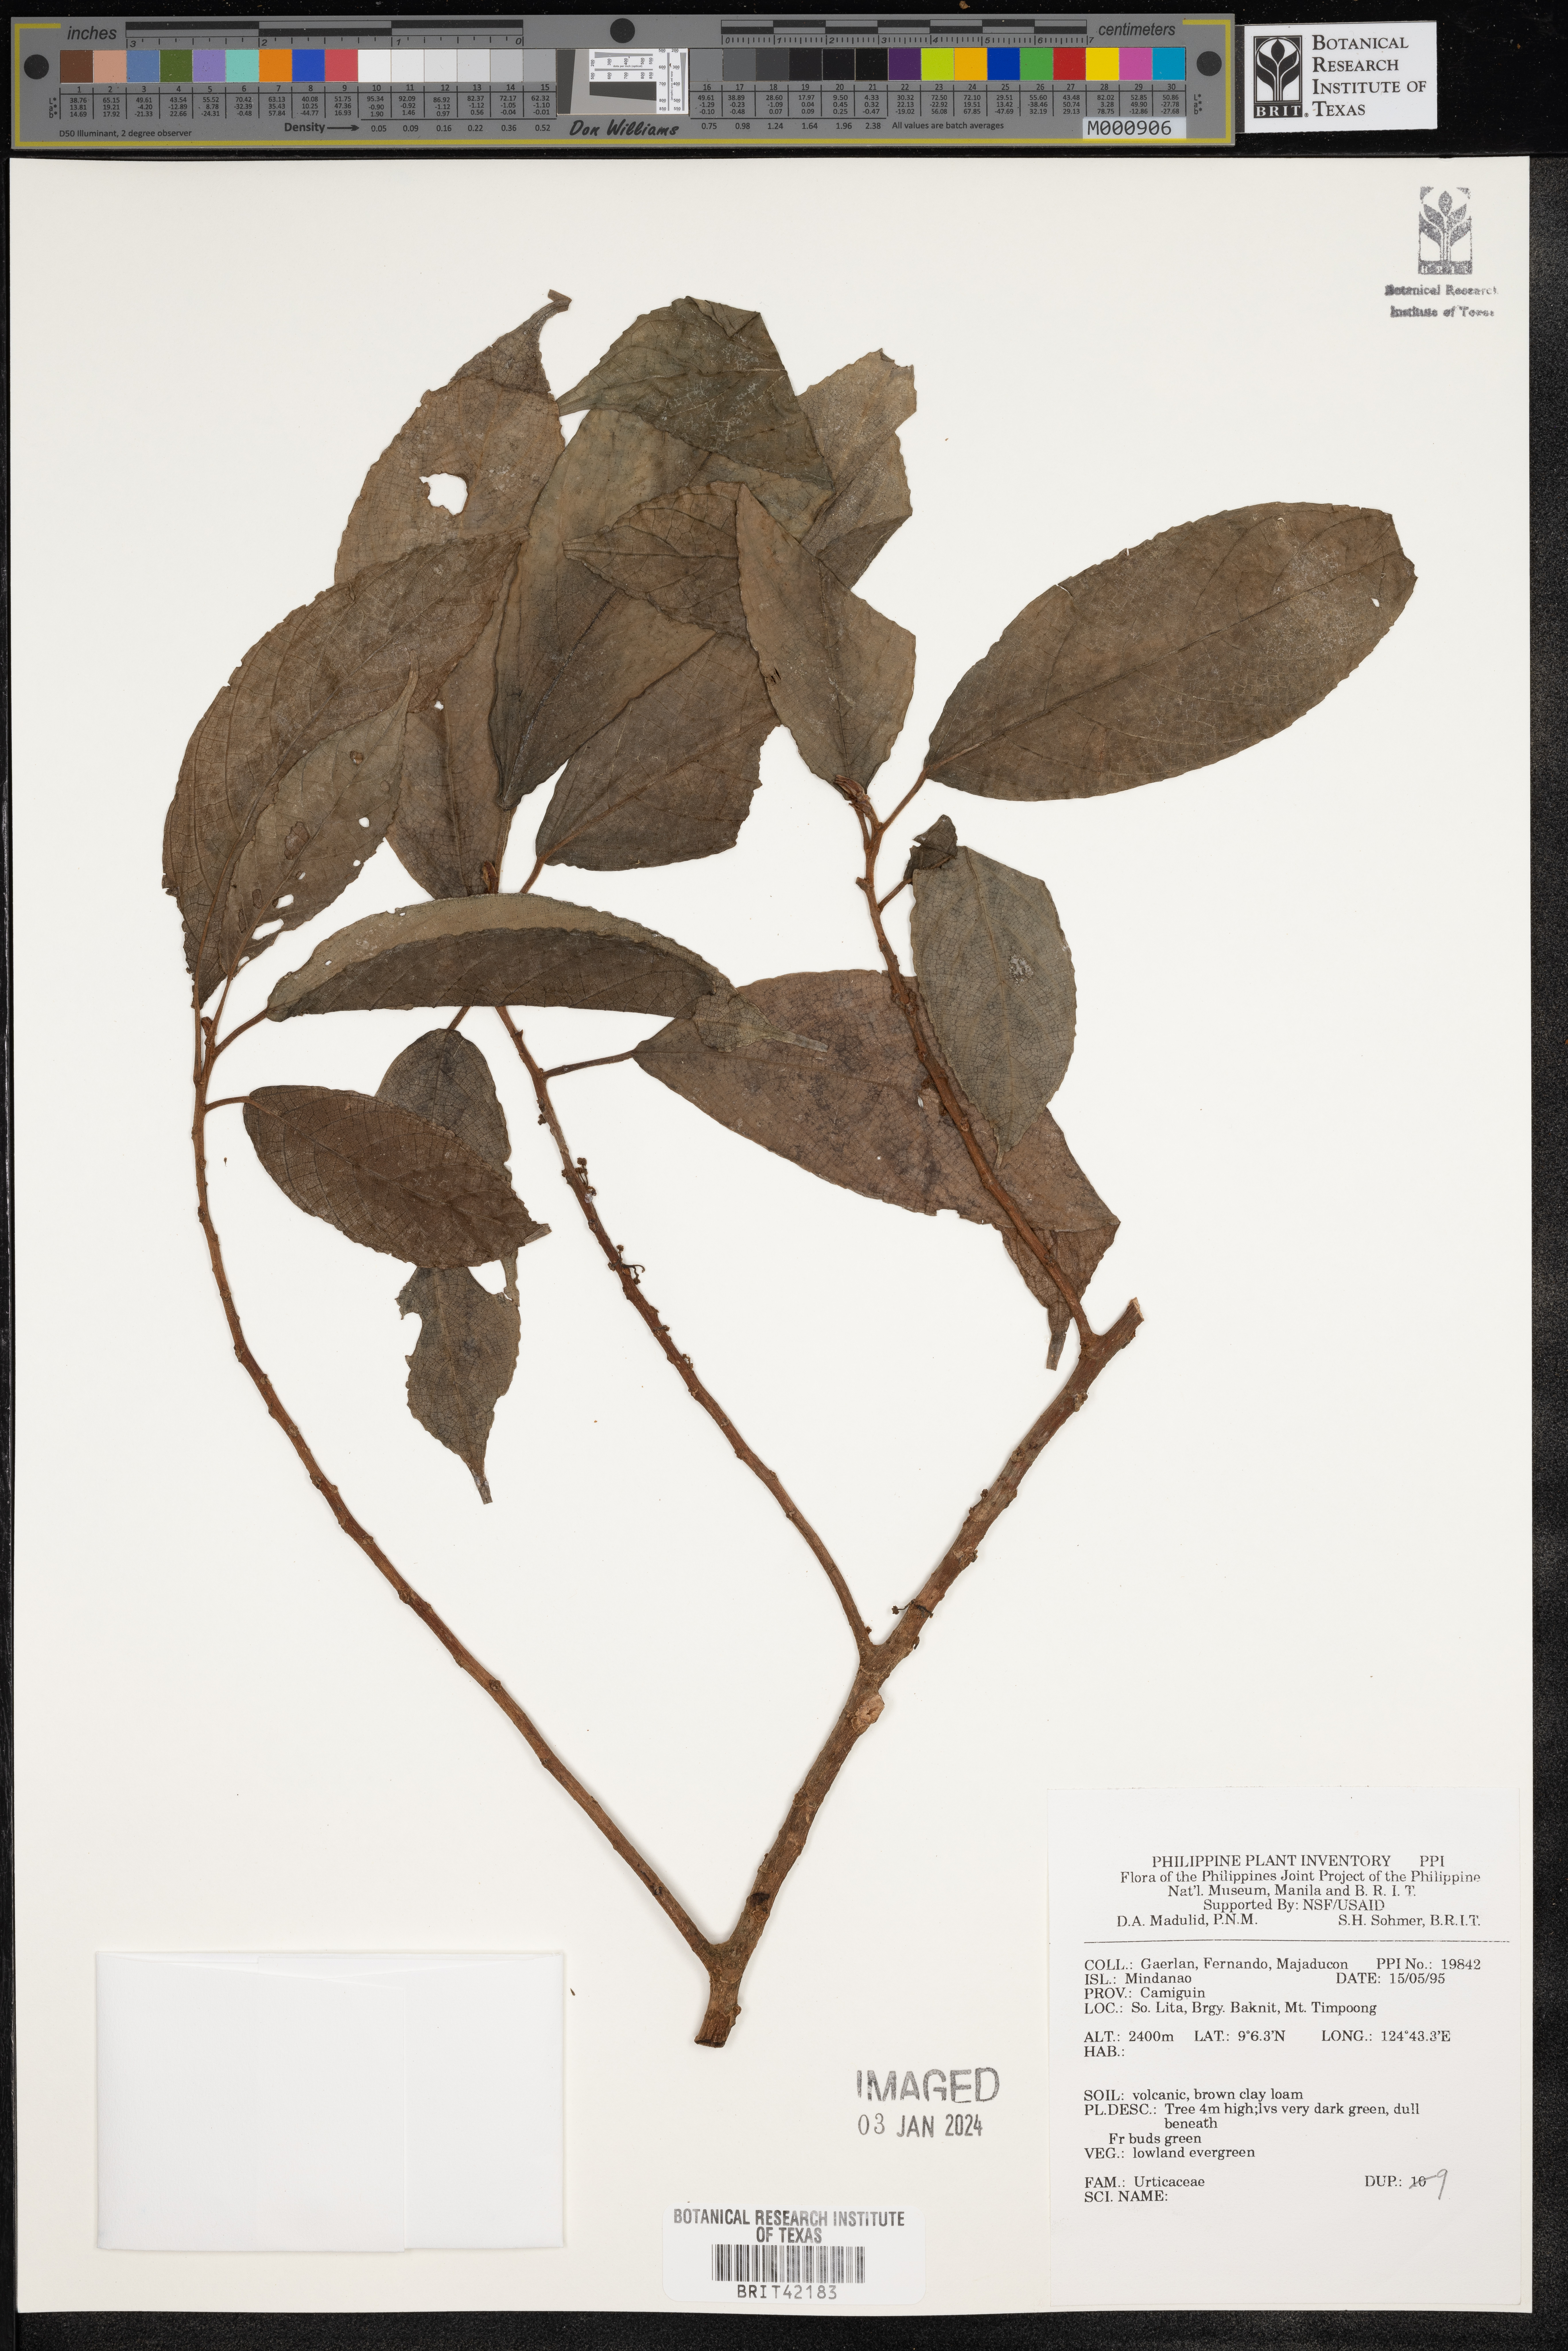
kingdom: Plantae
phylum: Tracheophyta
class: Magnoliopsida
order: Rosales
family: Urticaceae
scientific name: Urticaceae
